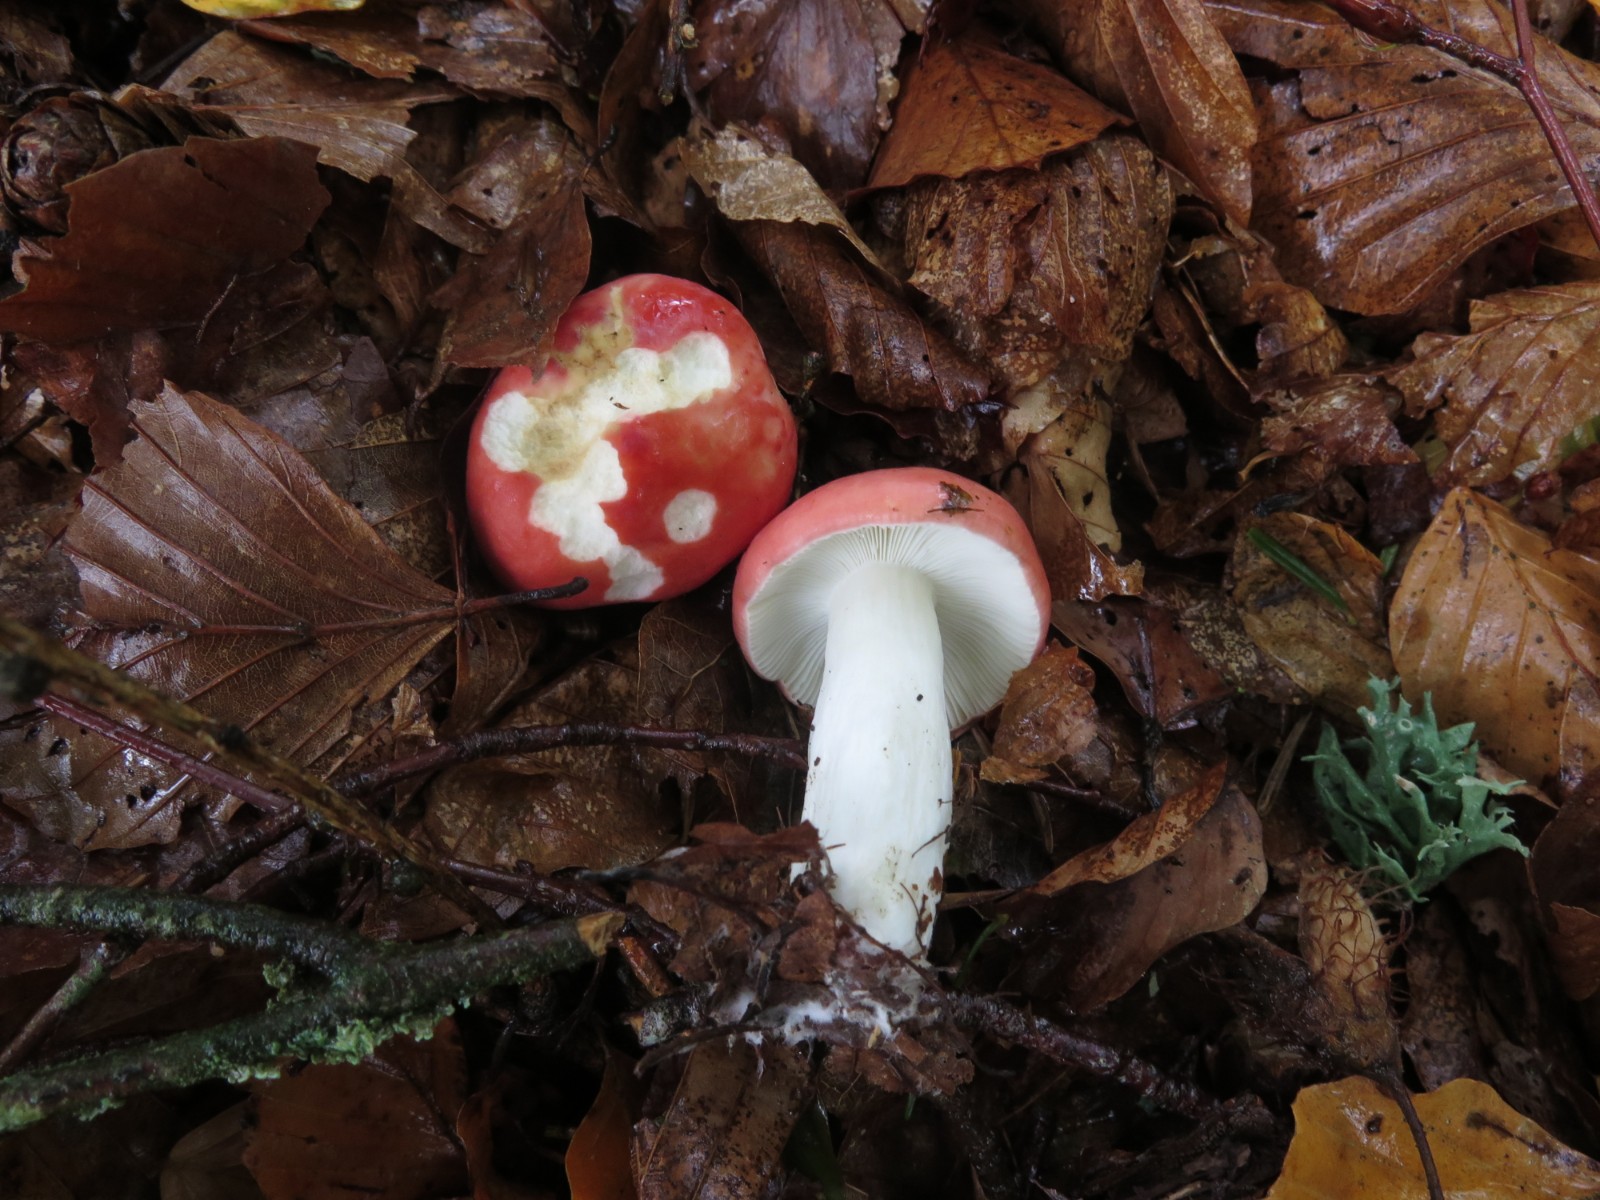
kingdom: Fungi
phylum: Basidiomycota
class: Agaricomycetes
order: Russulales
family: Russulaceae
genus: Russula
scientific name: Russula nobilis
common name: lille gift-skørhat
